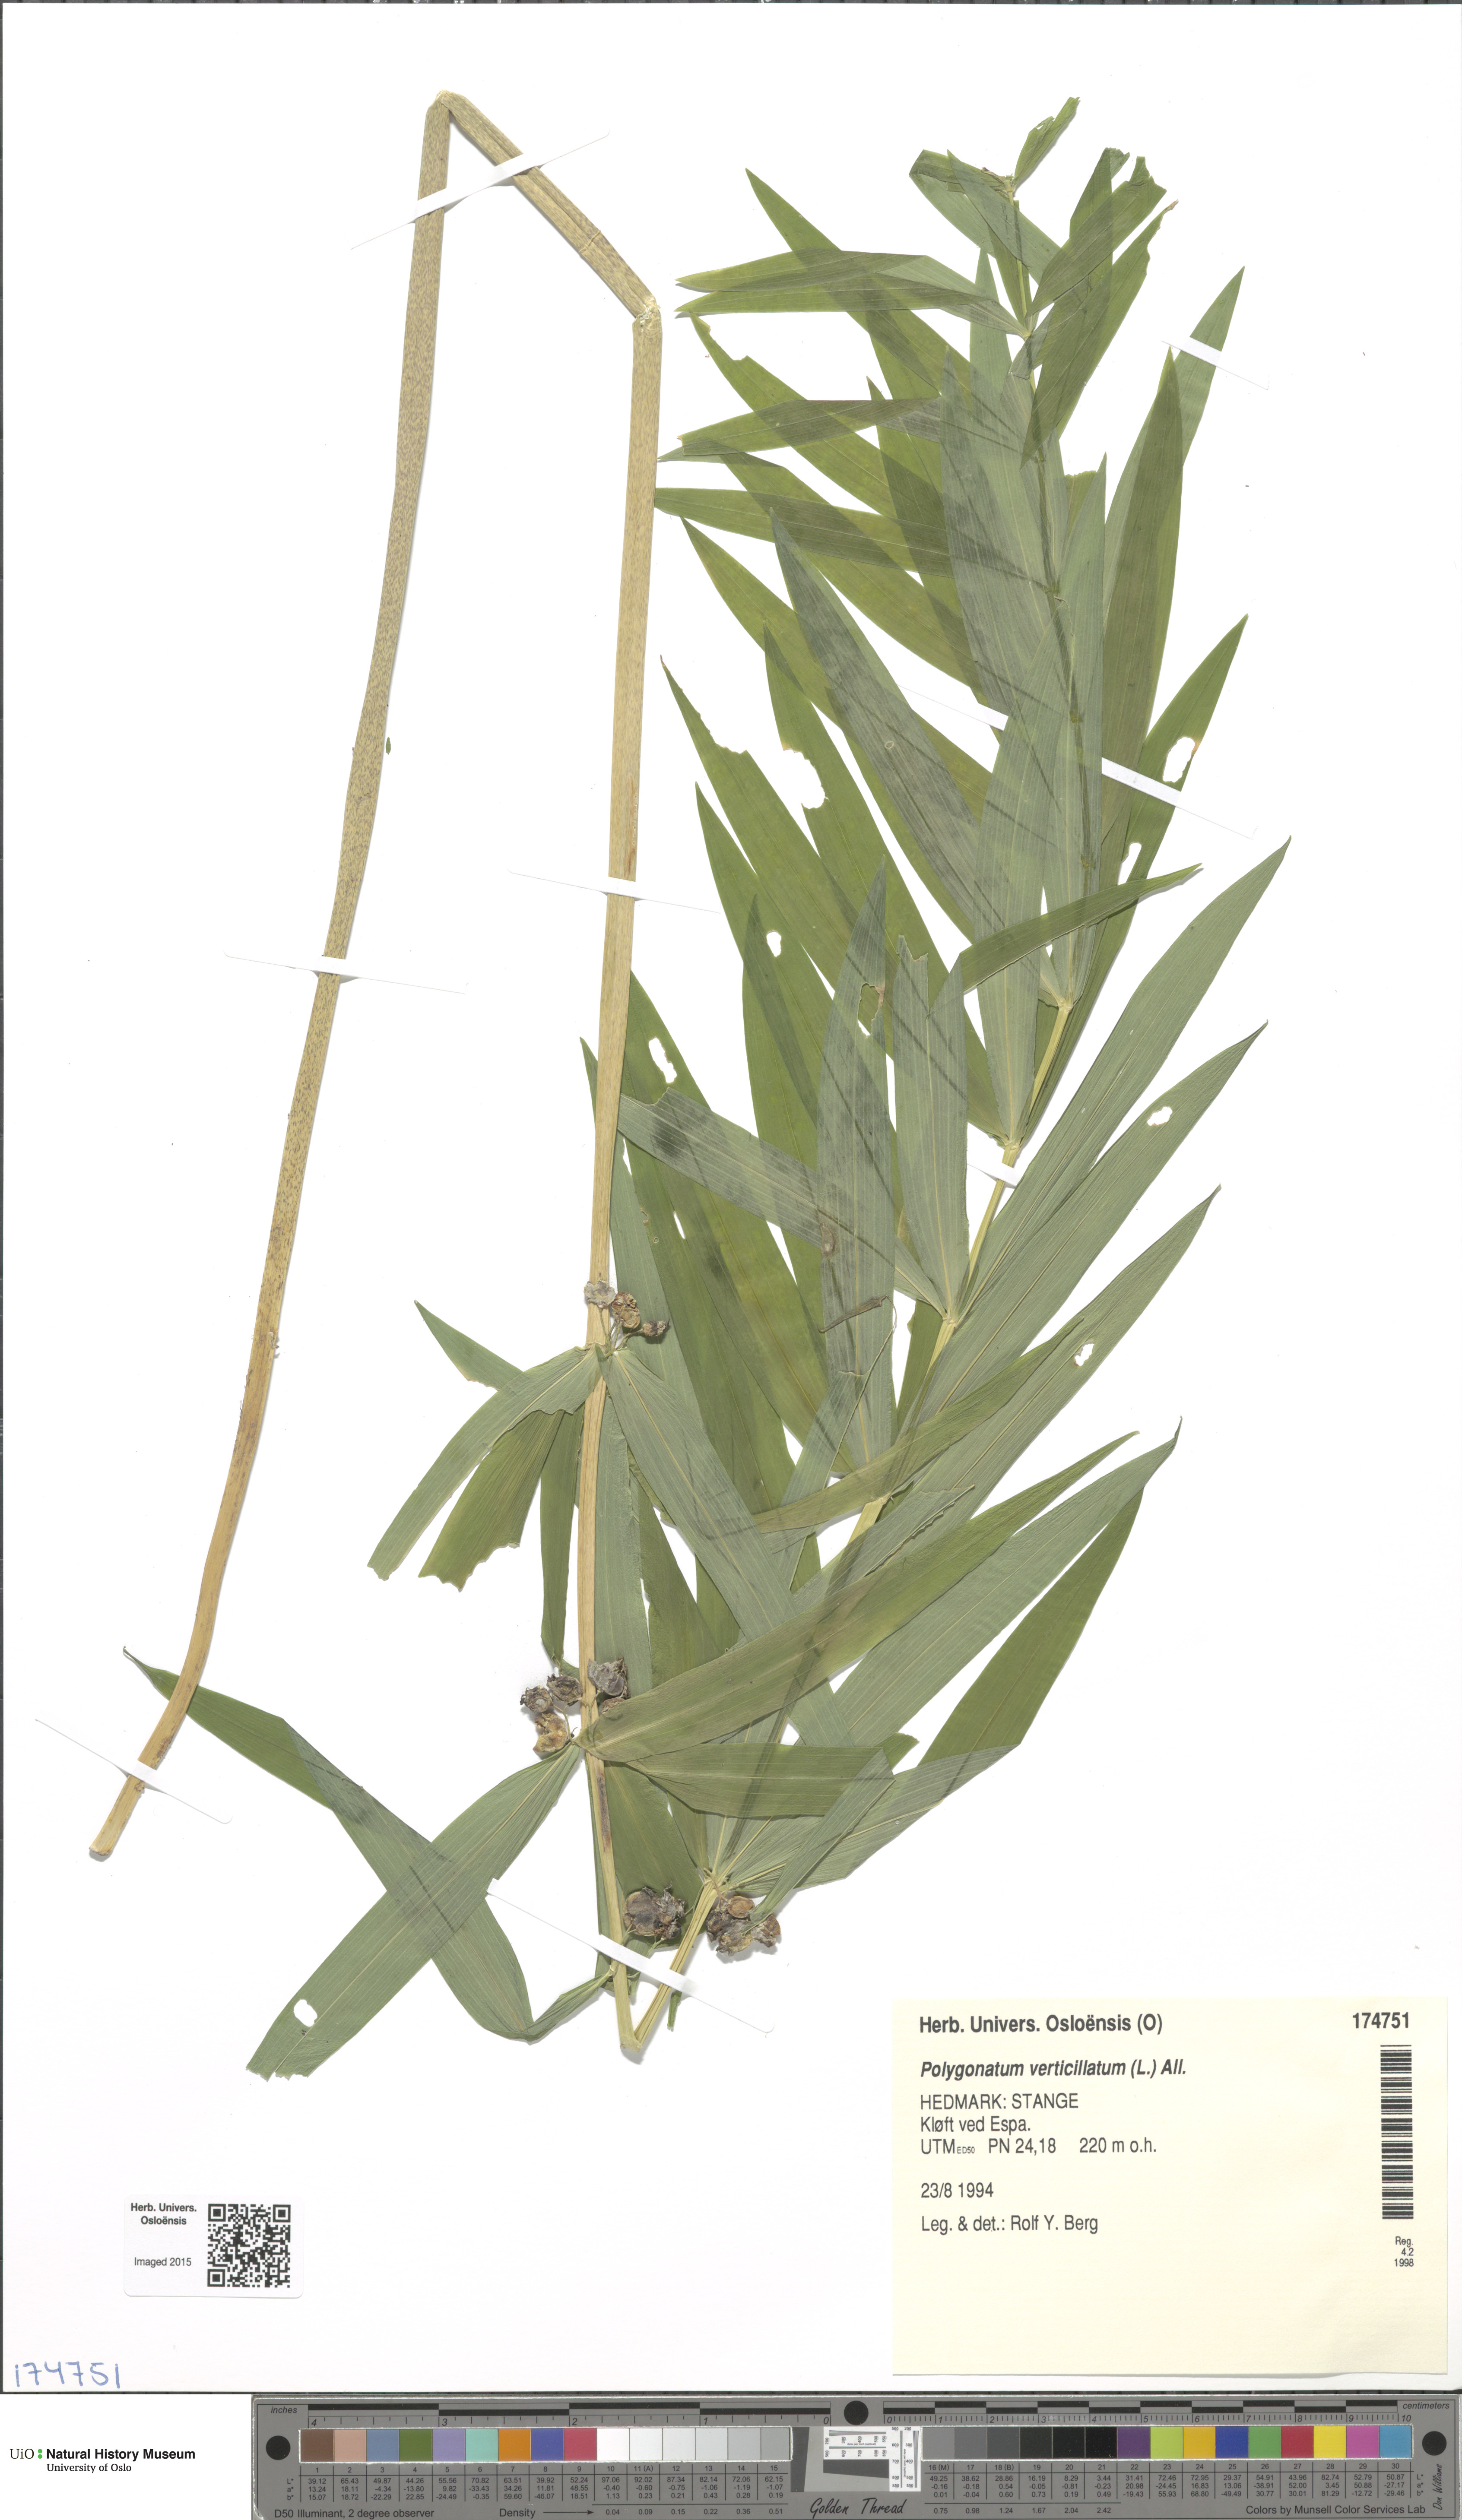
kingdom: Plantae
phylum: Tracheophyta
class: Liliopsida
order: Asparagales
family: Asparagaceae
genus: Polygonatum
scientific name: Polygonatum verticillatum
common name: Whorled solomon's-seal
